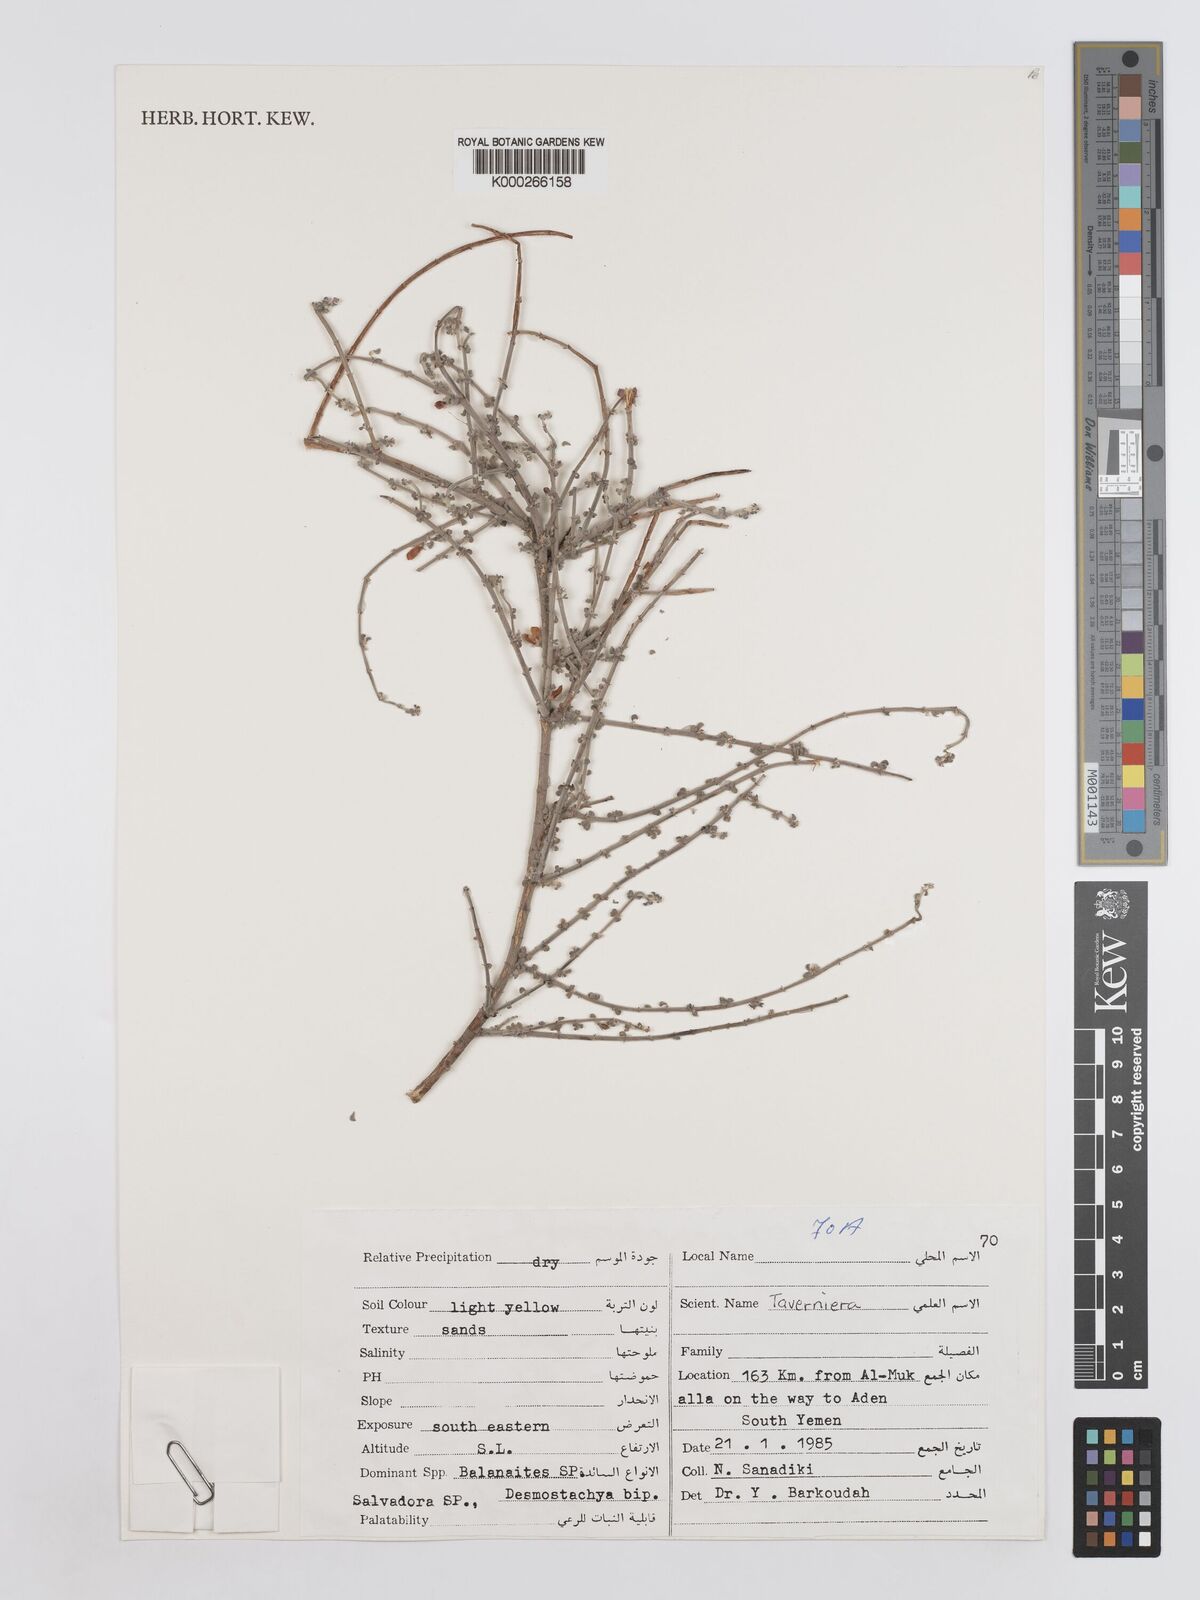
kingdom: Plantae
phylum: Tracheophyta
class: Magnoliopsida
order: Fabales
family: Fabaceae
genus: Taverniera
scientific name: Taverniera
